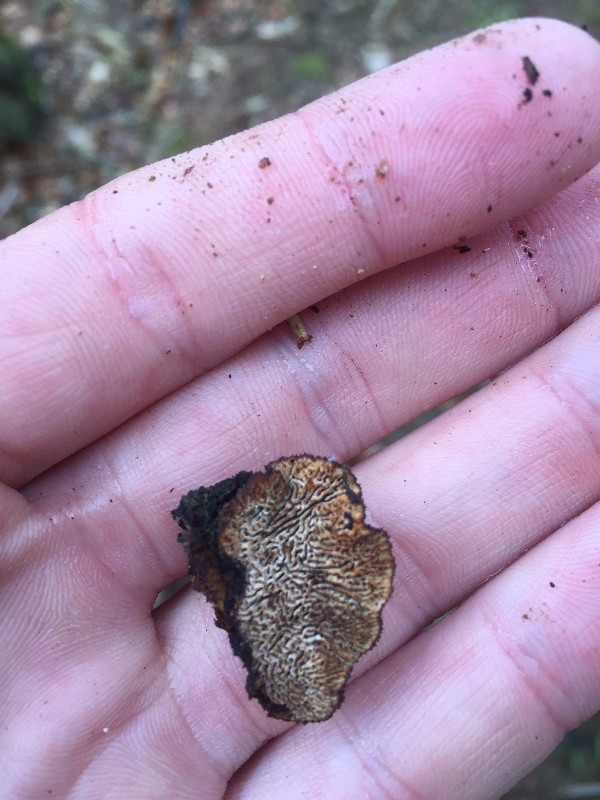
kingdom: Fungi
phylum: Basidiomycota
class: Agaricomycetes
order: Gloeophyllales
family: Gloeophyllaceae
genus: Gloeophyllum
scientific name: Gloeophyllum sepiarium
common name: fyrre-korkhat
